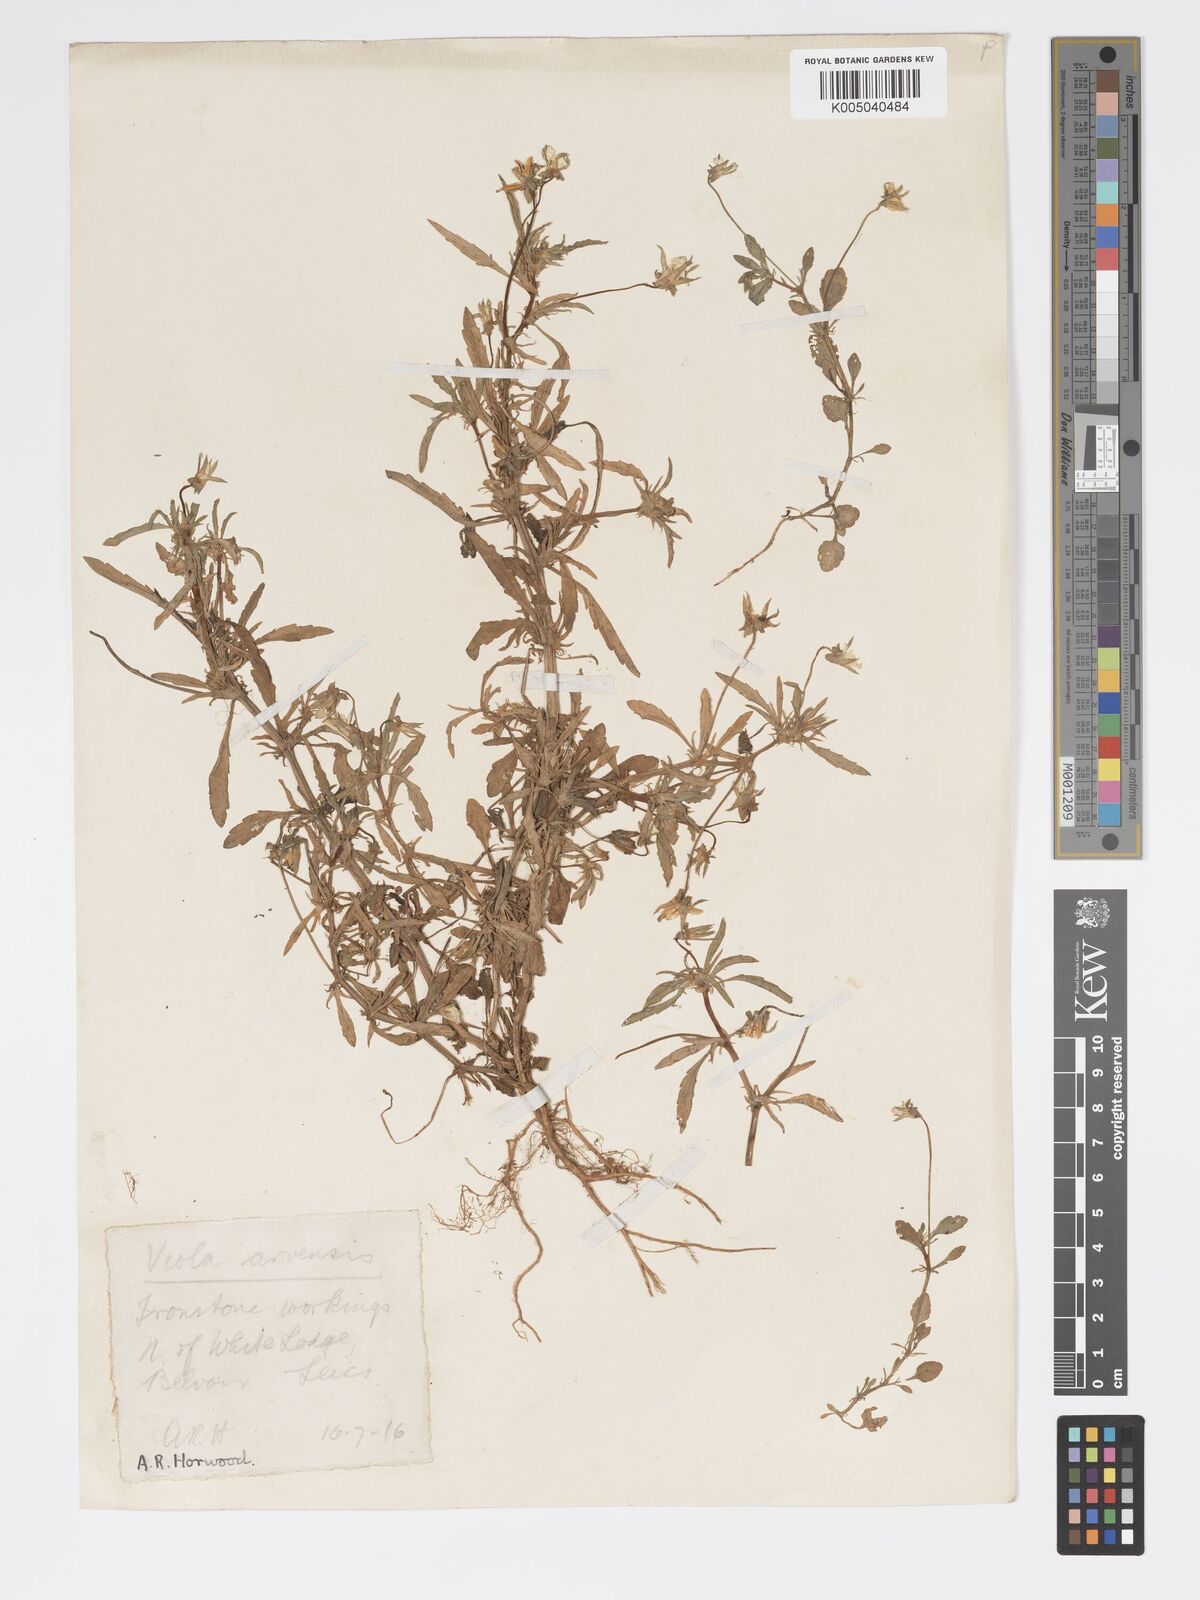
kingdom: Plantae
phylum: Tracheophyta
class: Magnoliopsida
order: Malpighiales
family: Violaceae
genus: Viola
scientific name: Viola arvensis
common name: Field pansy
